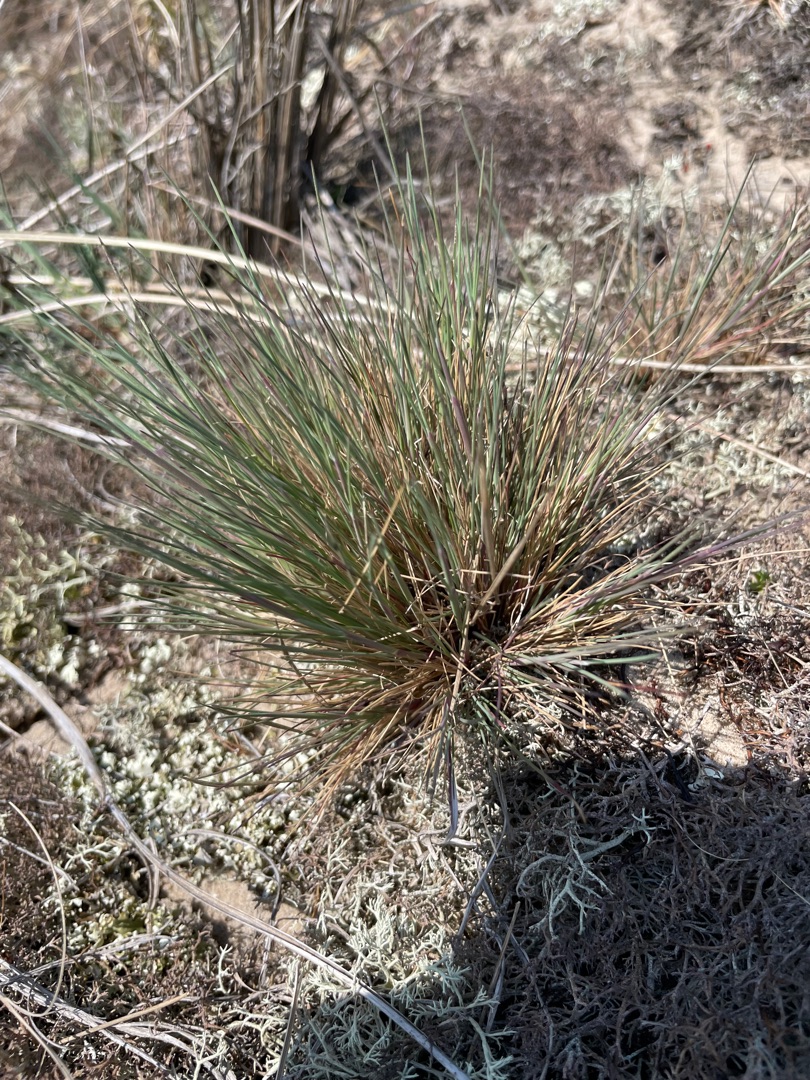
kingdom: Plantae
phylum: Tracheophyta
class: Liliopsida
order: Poales
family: Poaceae
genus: Corynephorus
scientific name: Corynephorus canescens
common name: Sandskæg
